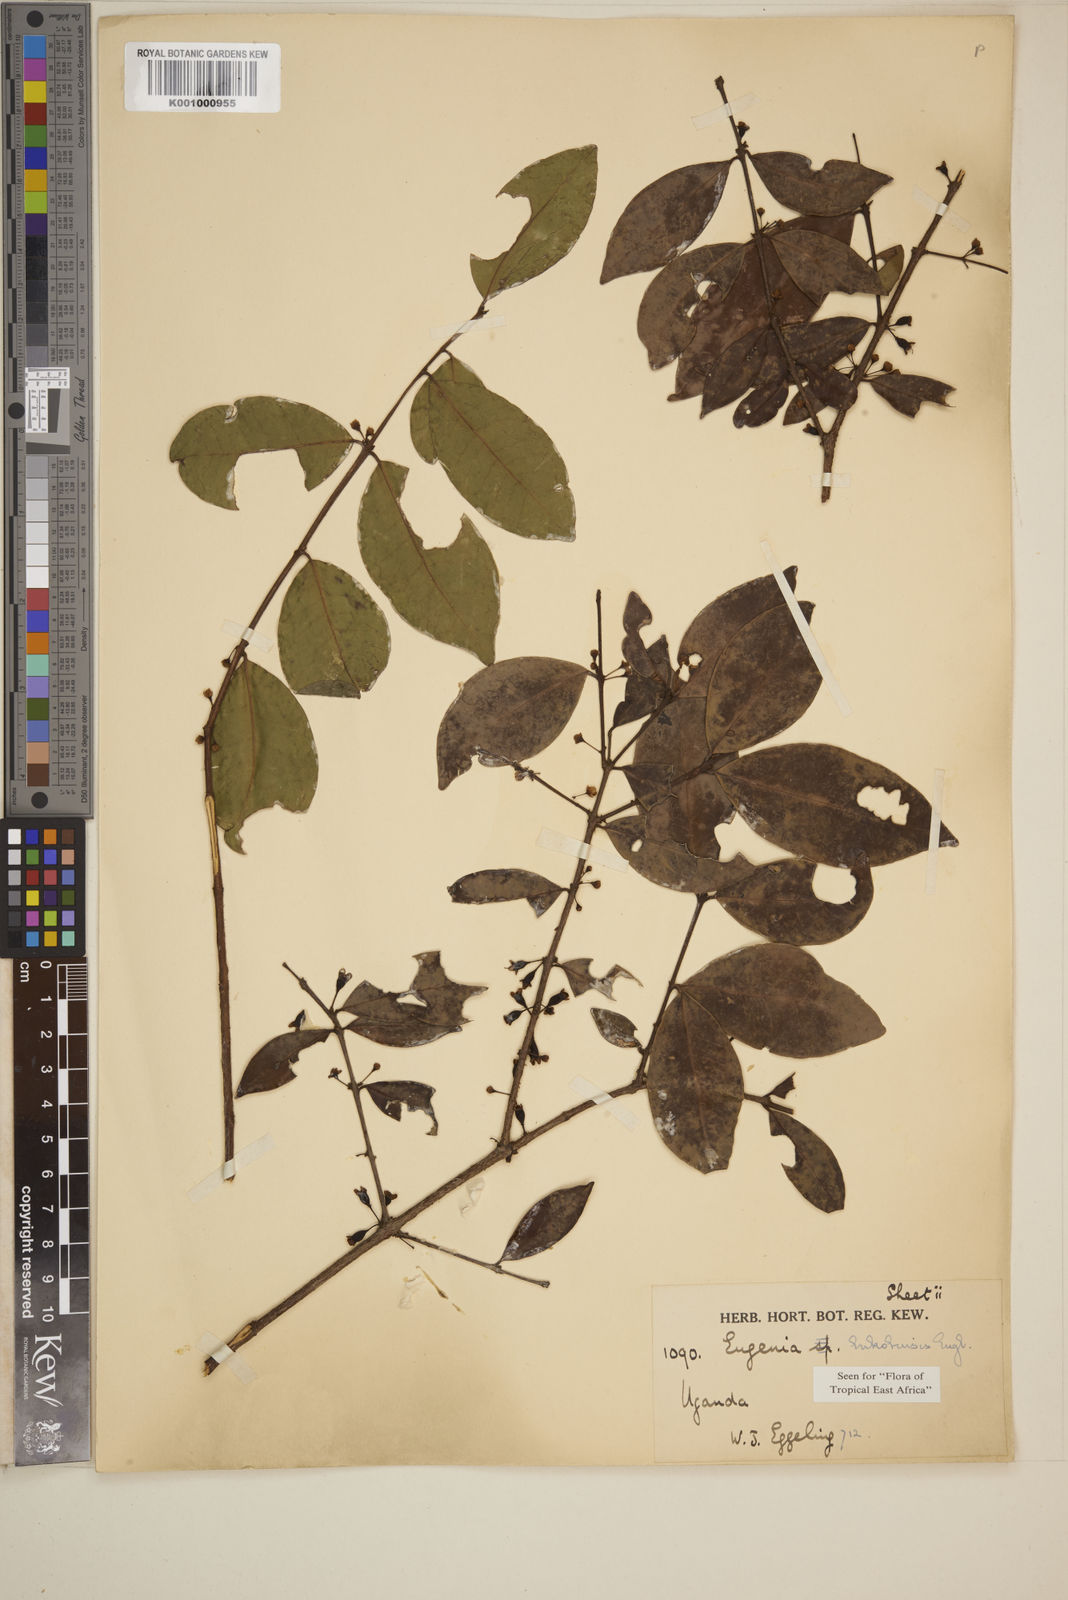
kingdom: Plantae
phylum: Tracheophyta
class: Magnoliopsida
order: Myrtales
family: Myrtaceae
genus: Eugenia
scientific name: Eugenia bukobensis
